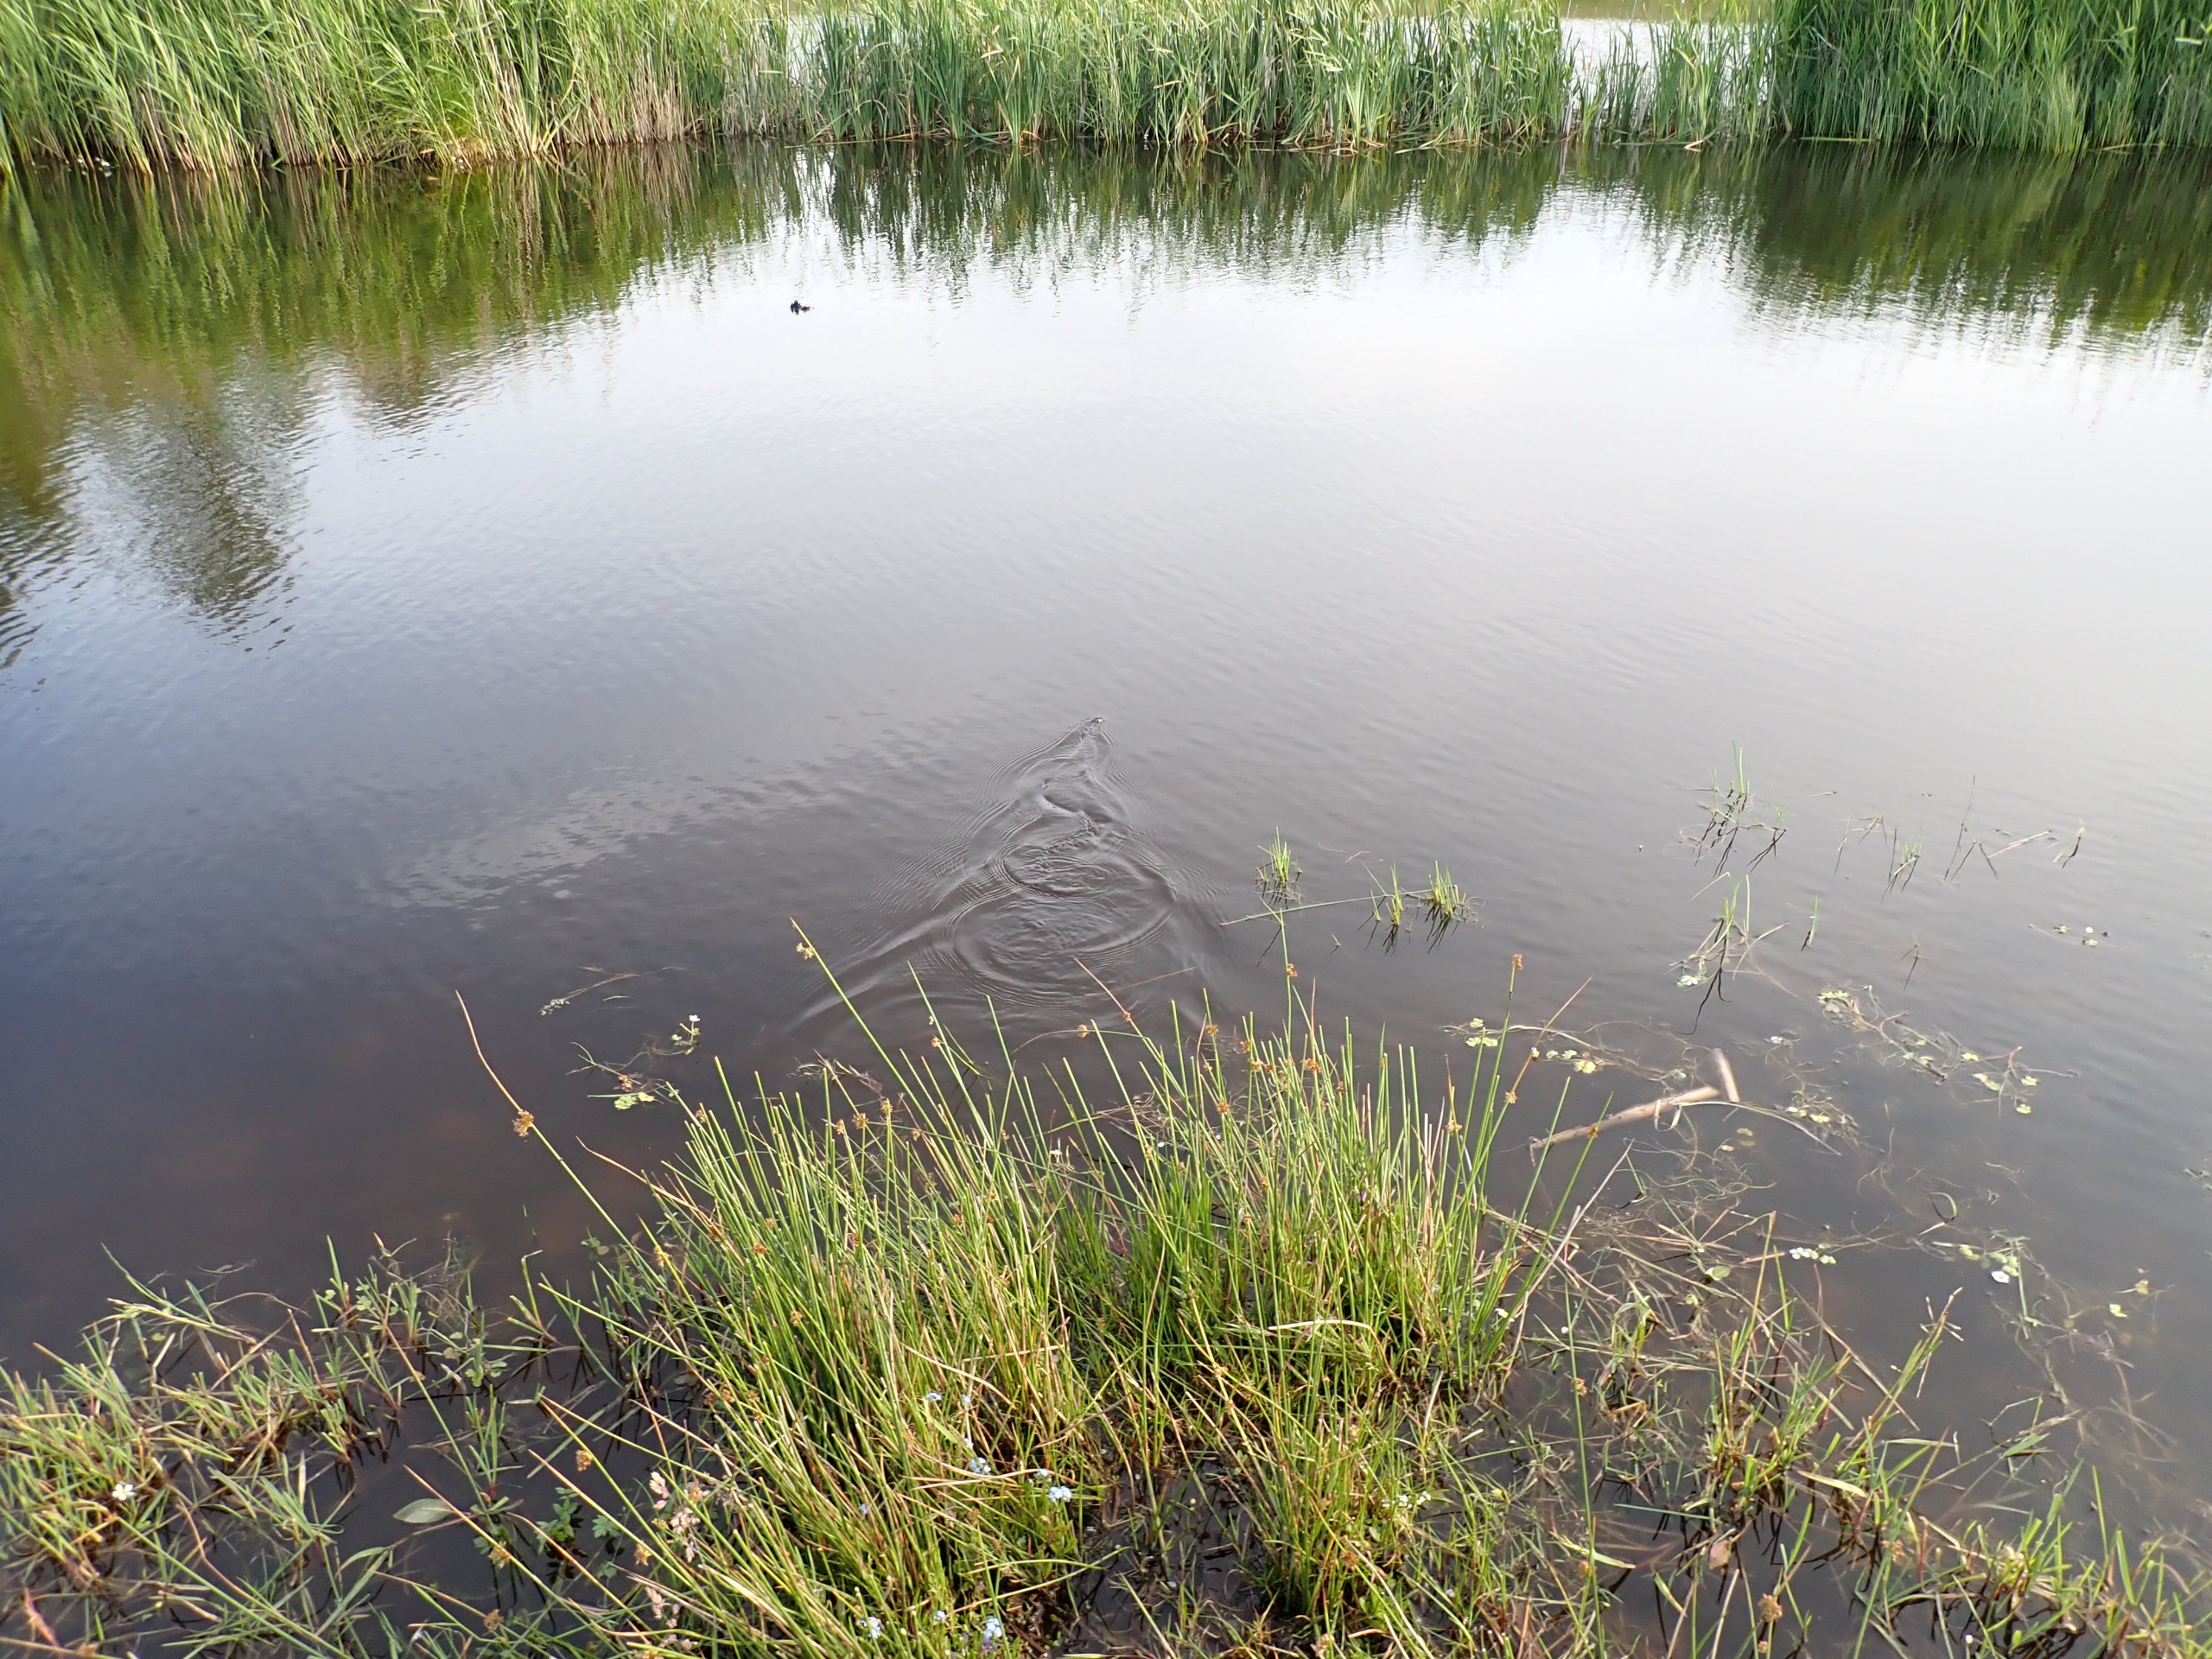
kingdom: Animalia
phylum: Chordata
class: Squamata
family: Colubridae
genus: Natrix
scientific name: Natrix natrix
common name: Snog
